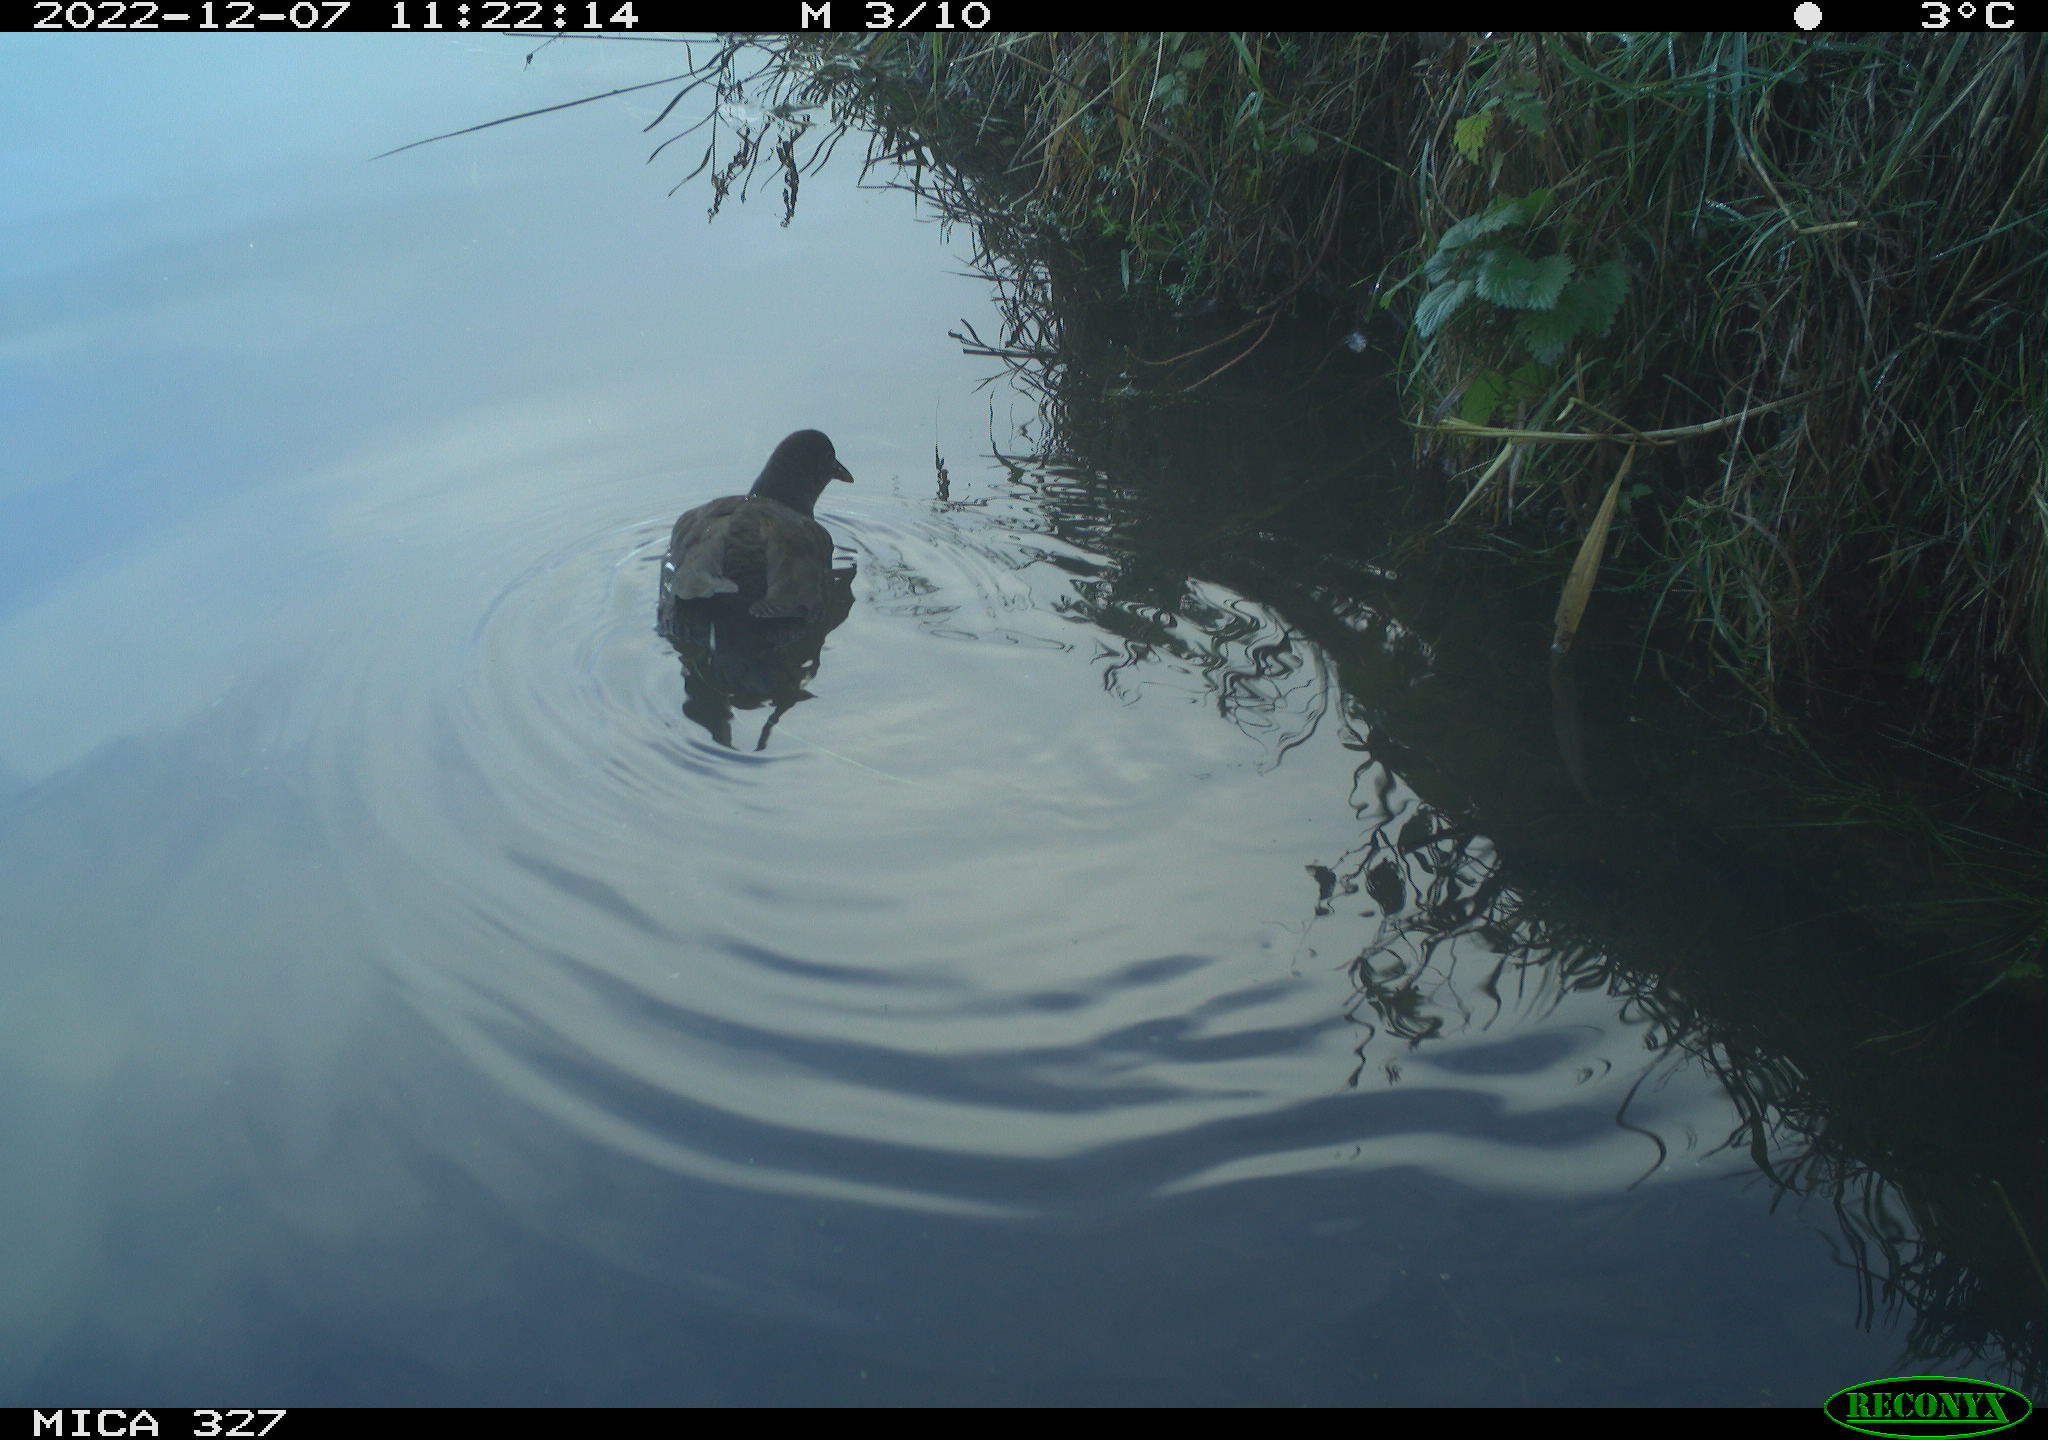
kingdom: Animalia
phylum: Chordata
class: Aves
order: Gruiformes
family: Rallidae
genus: Gallinula
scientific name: Gallinula chloropus
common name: Common moorhen
